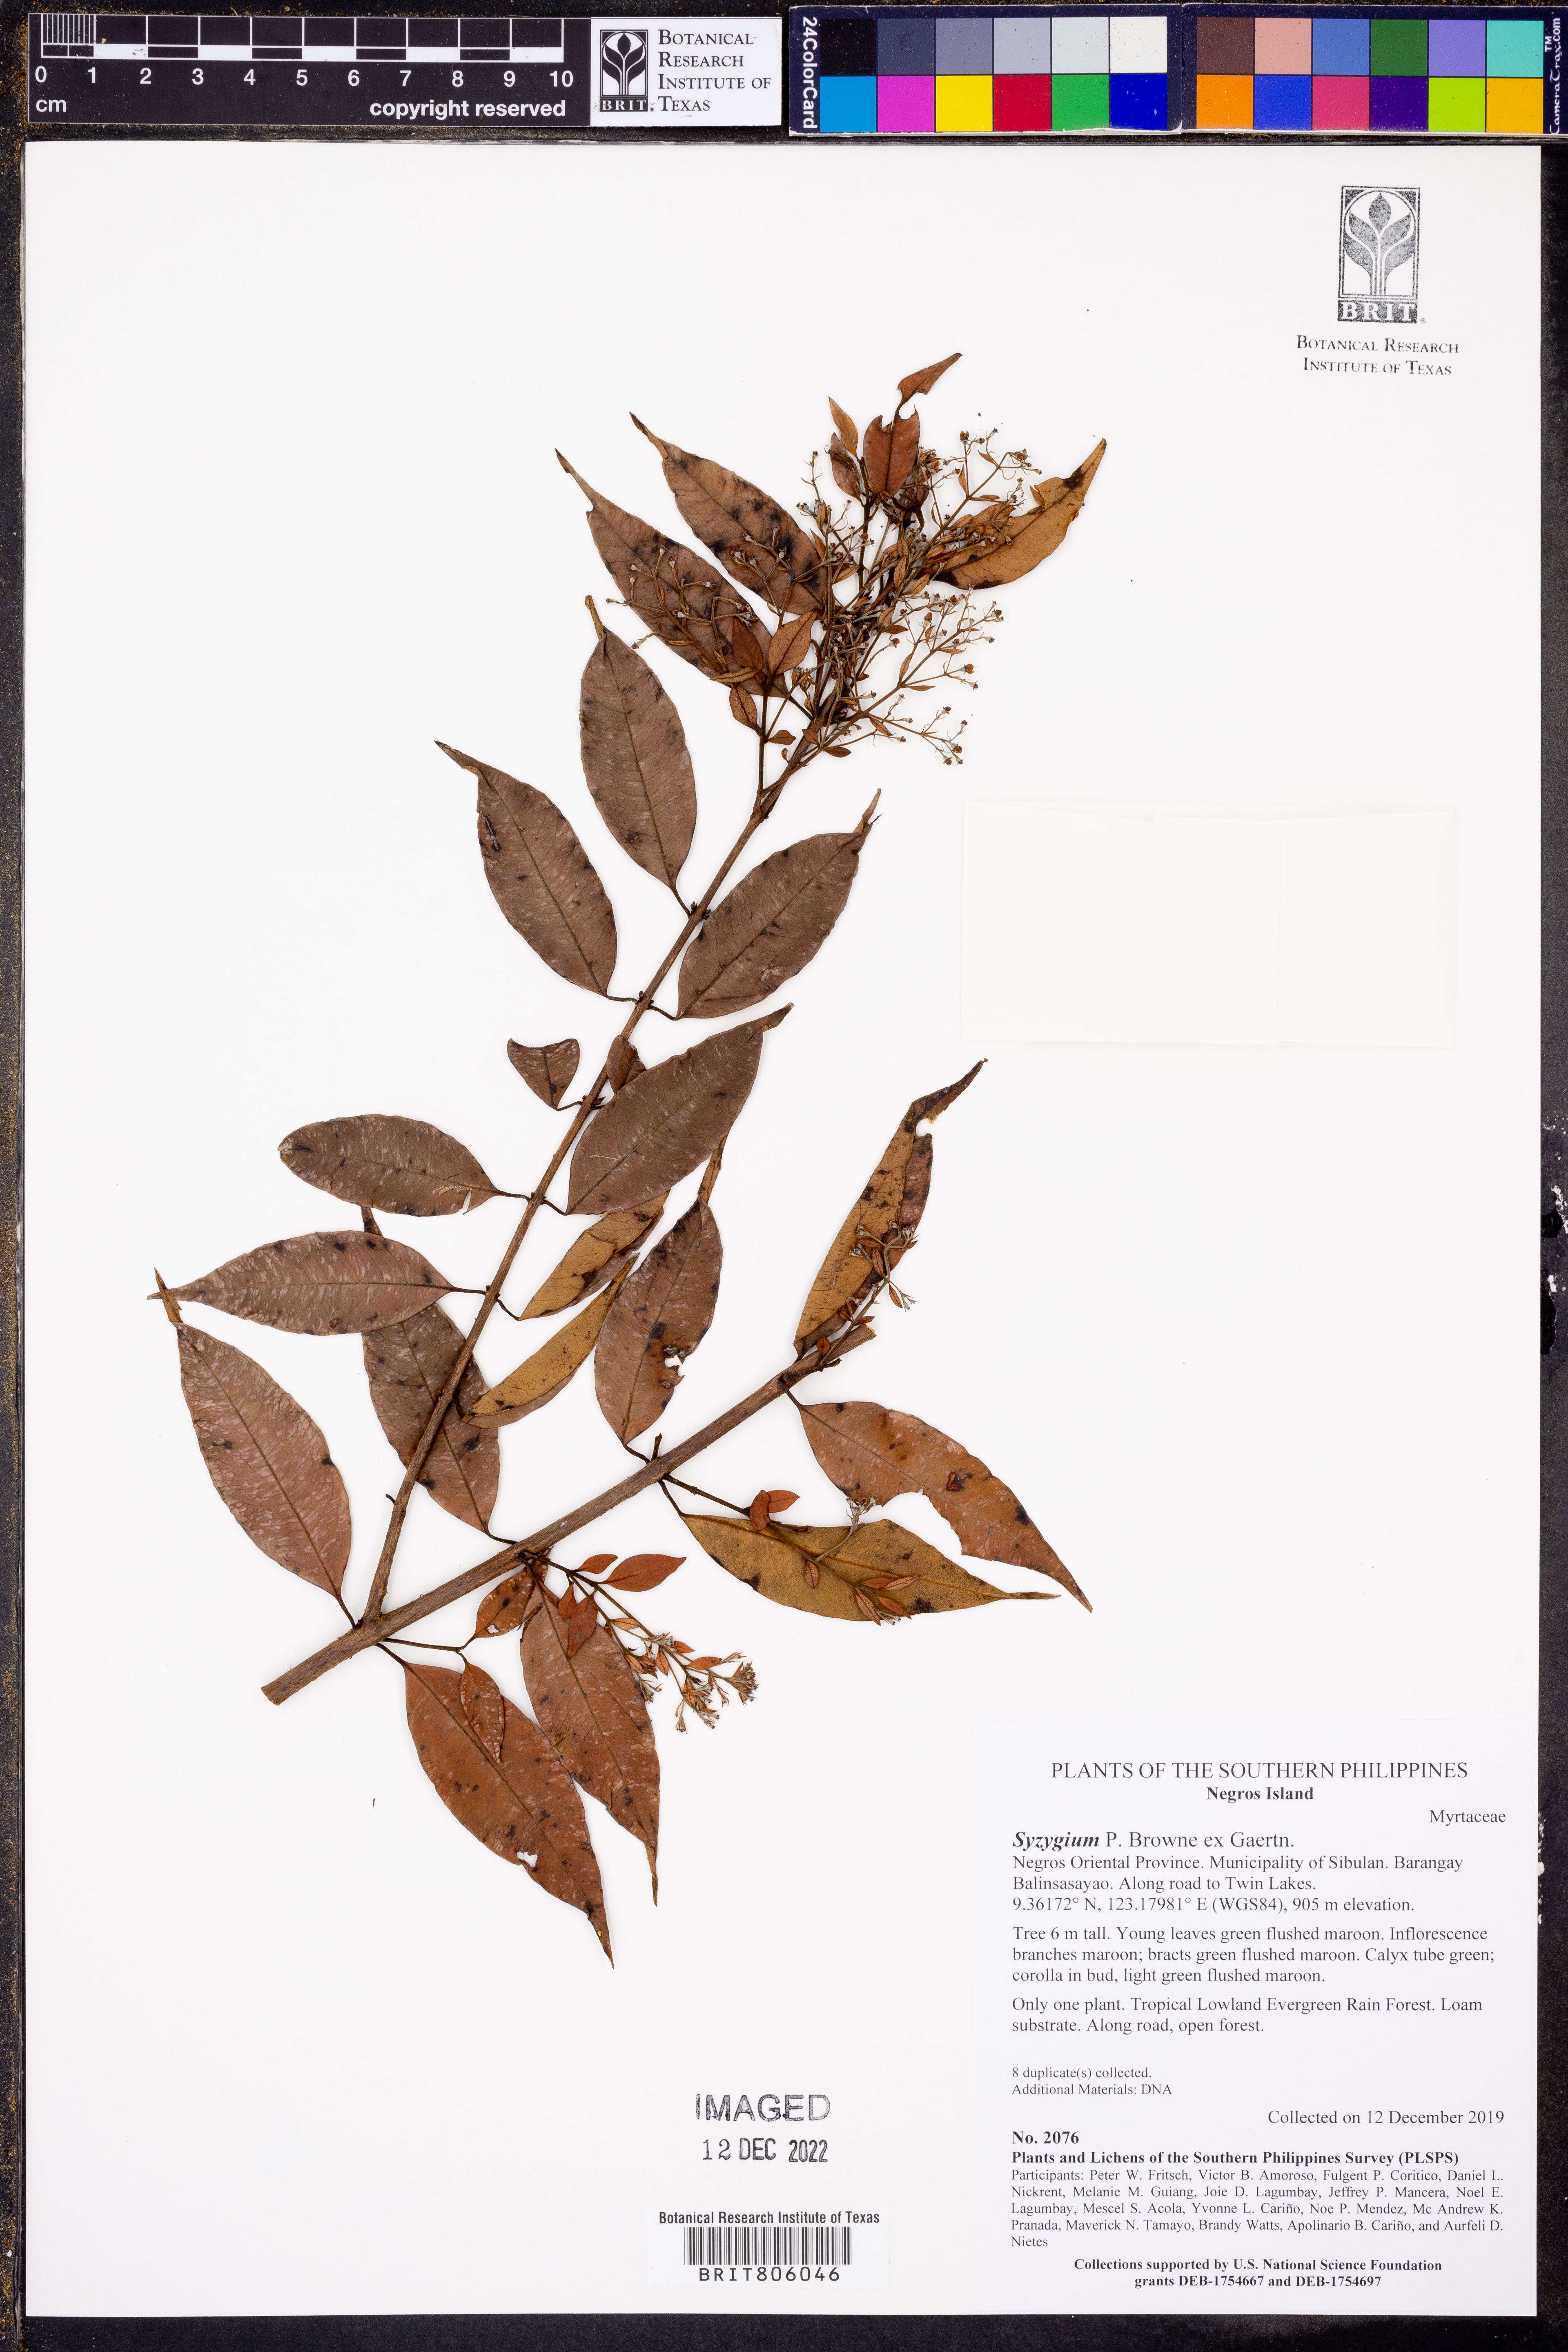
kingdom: Plantae
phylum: Tracheophyta
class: Magnoliopsida
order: Myrtales
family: Myrtaceae
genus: Syzygium
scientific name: Syzygium
